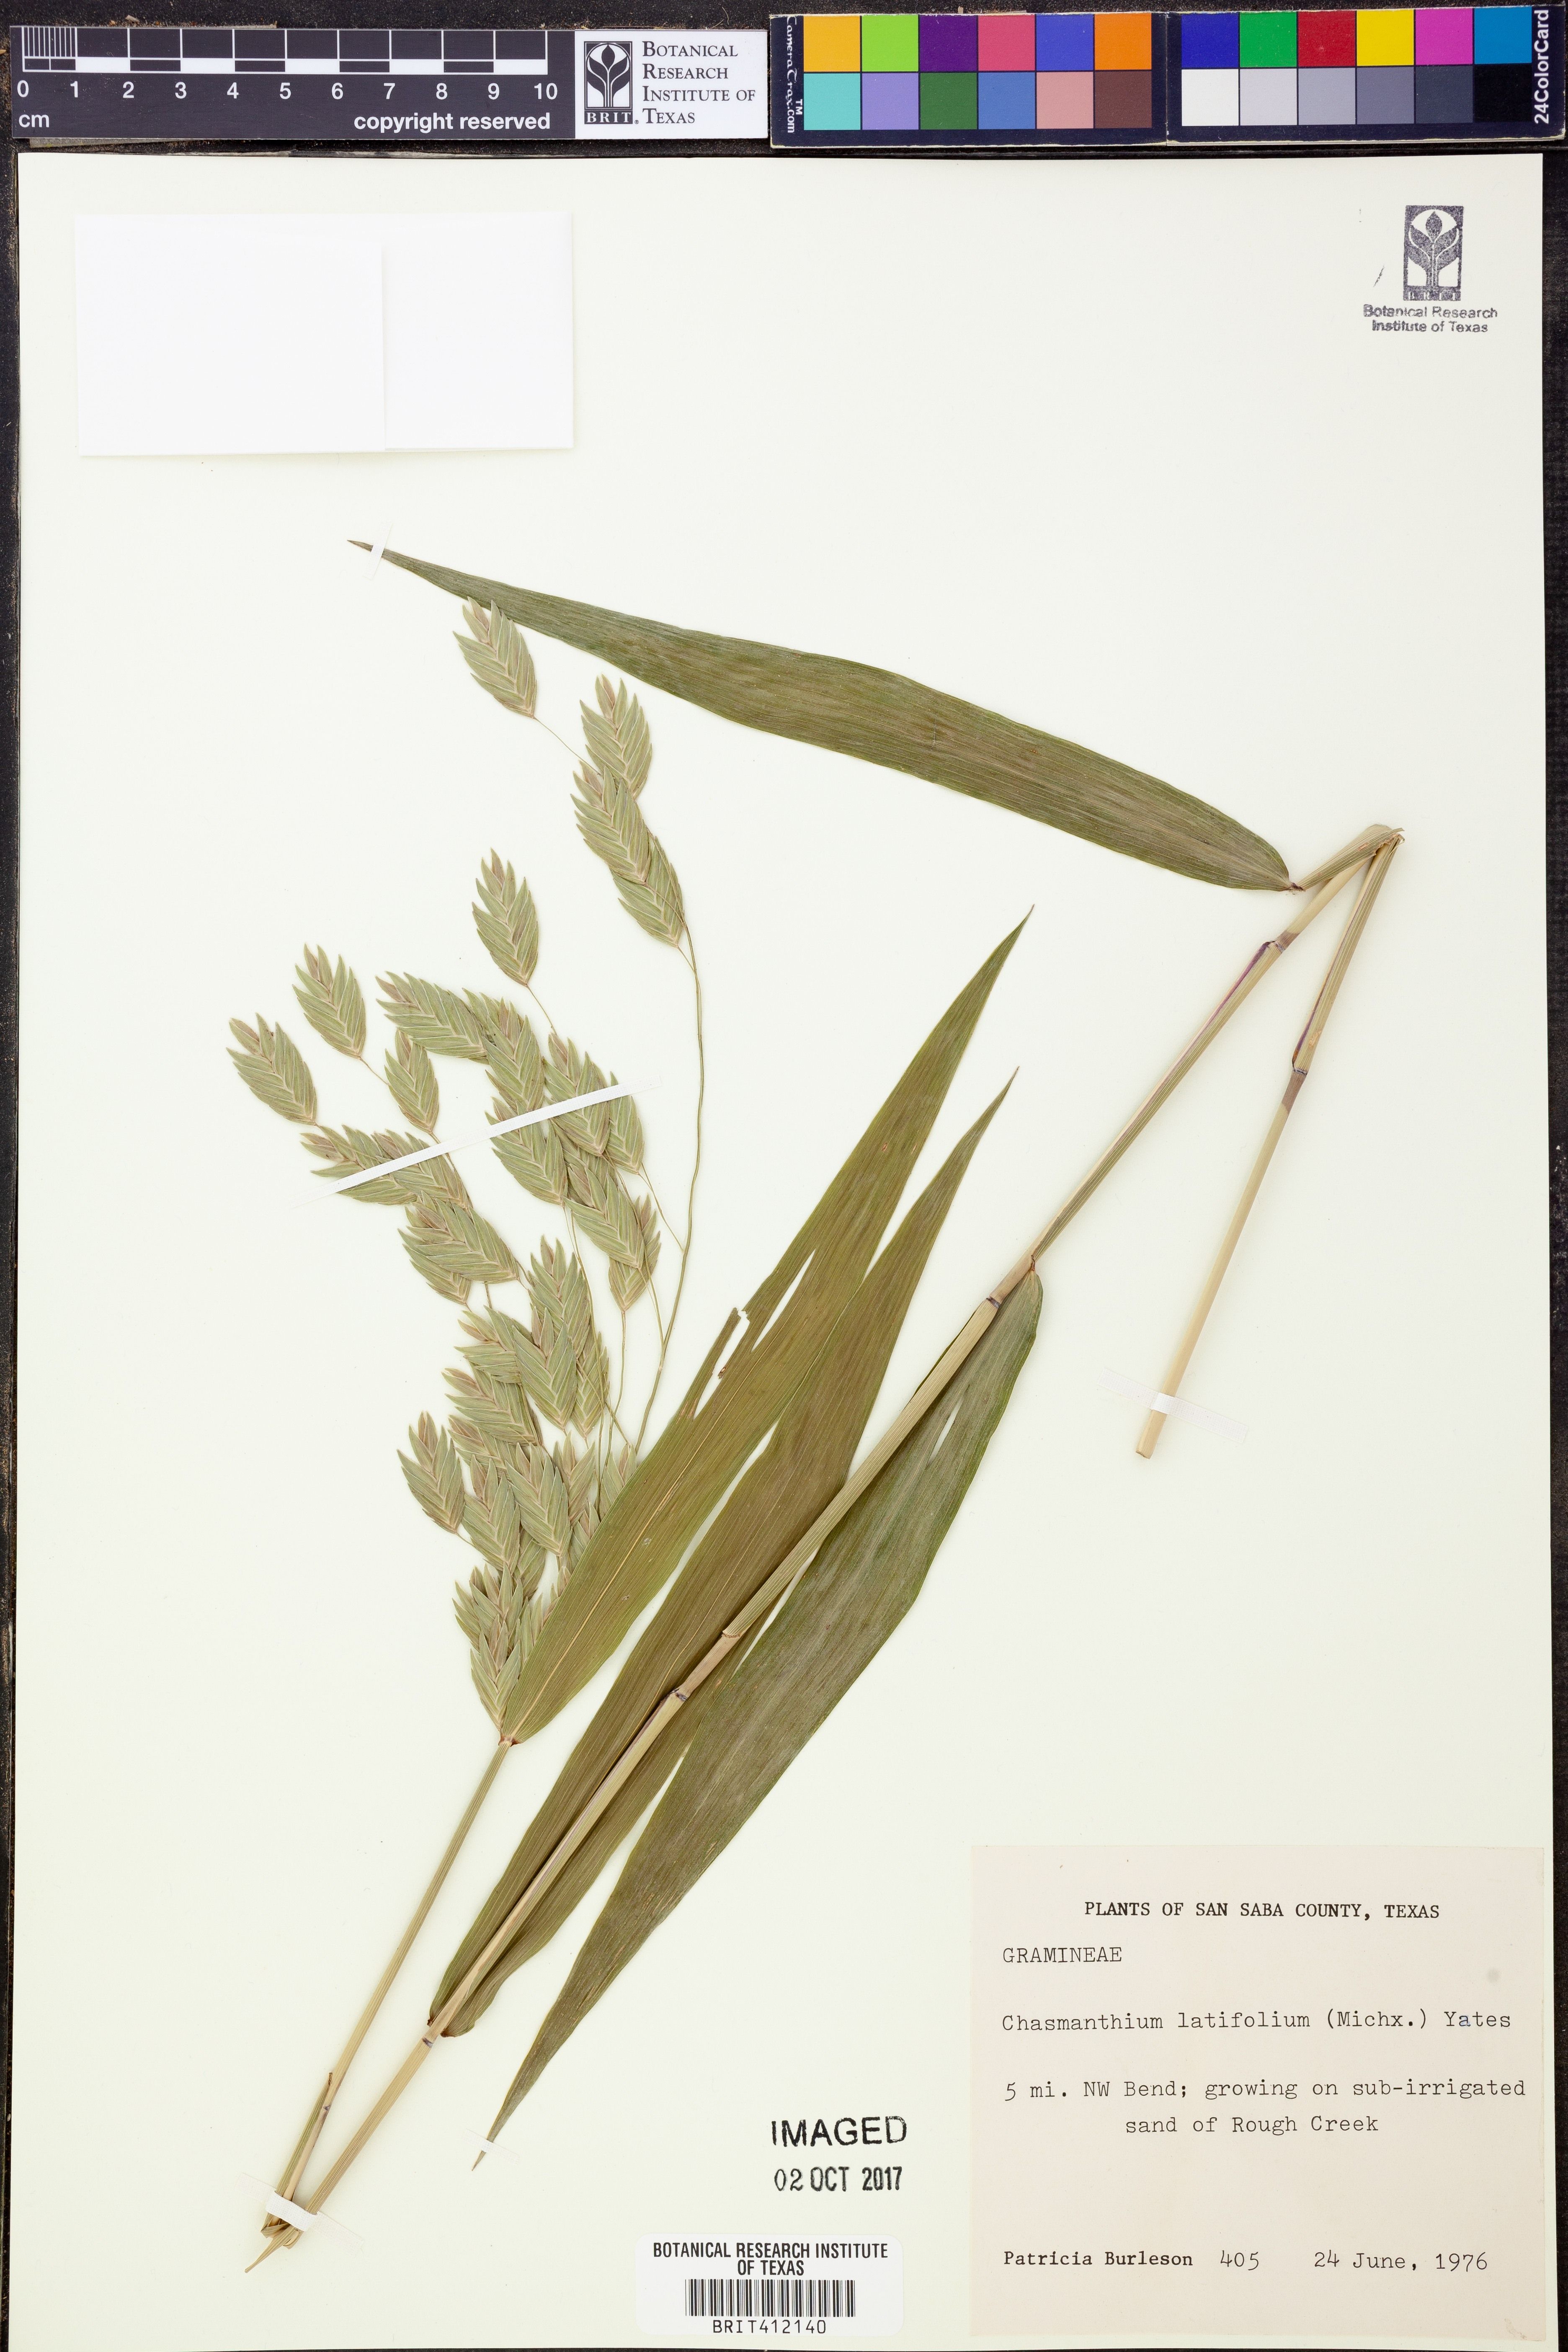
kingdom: Plantae
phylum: Tracheophyta
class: Liliopsida
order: Poales
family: Poaceae
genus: Chasmanthium
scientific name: Chasmanthium latifolium
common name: Broad-leaved chasmanthium
